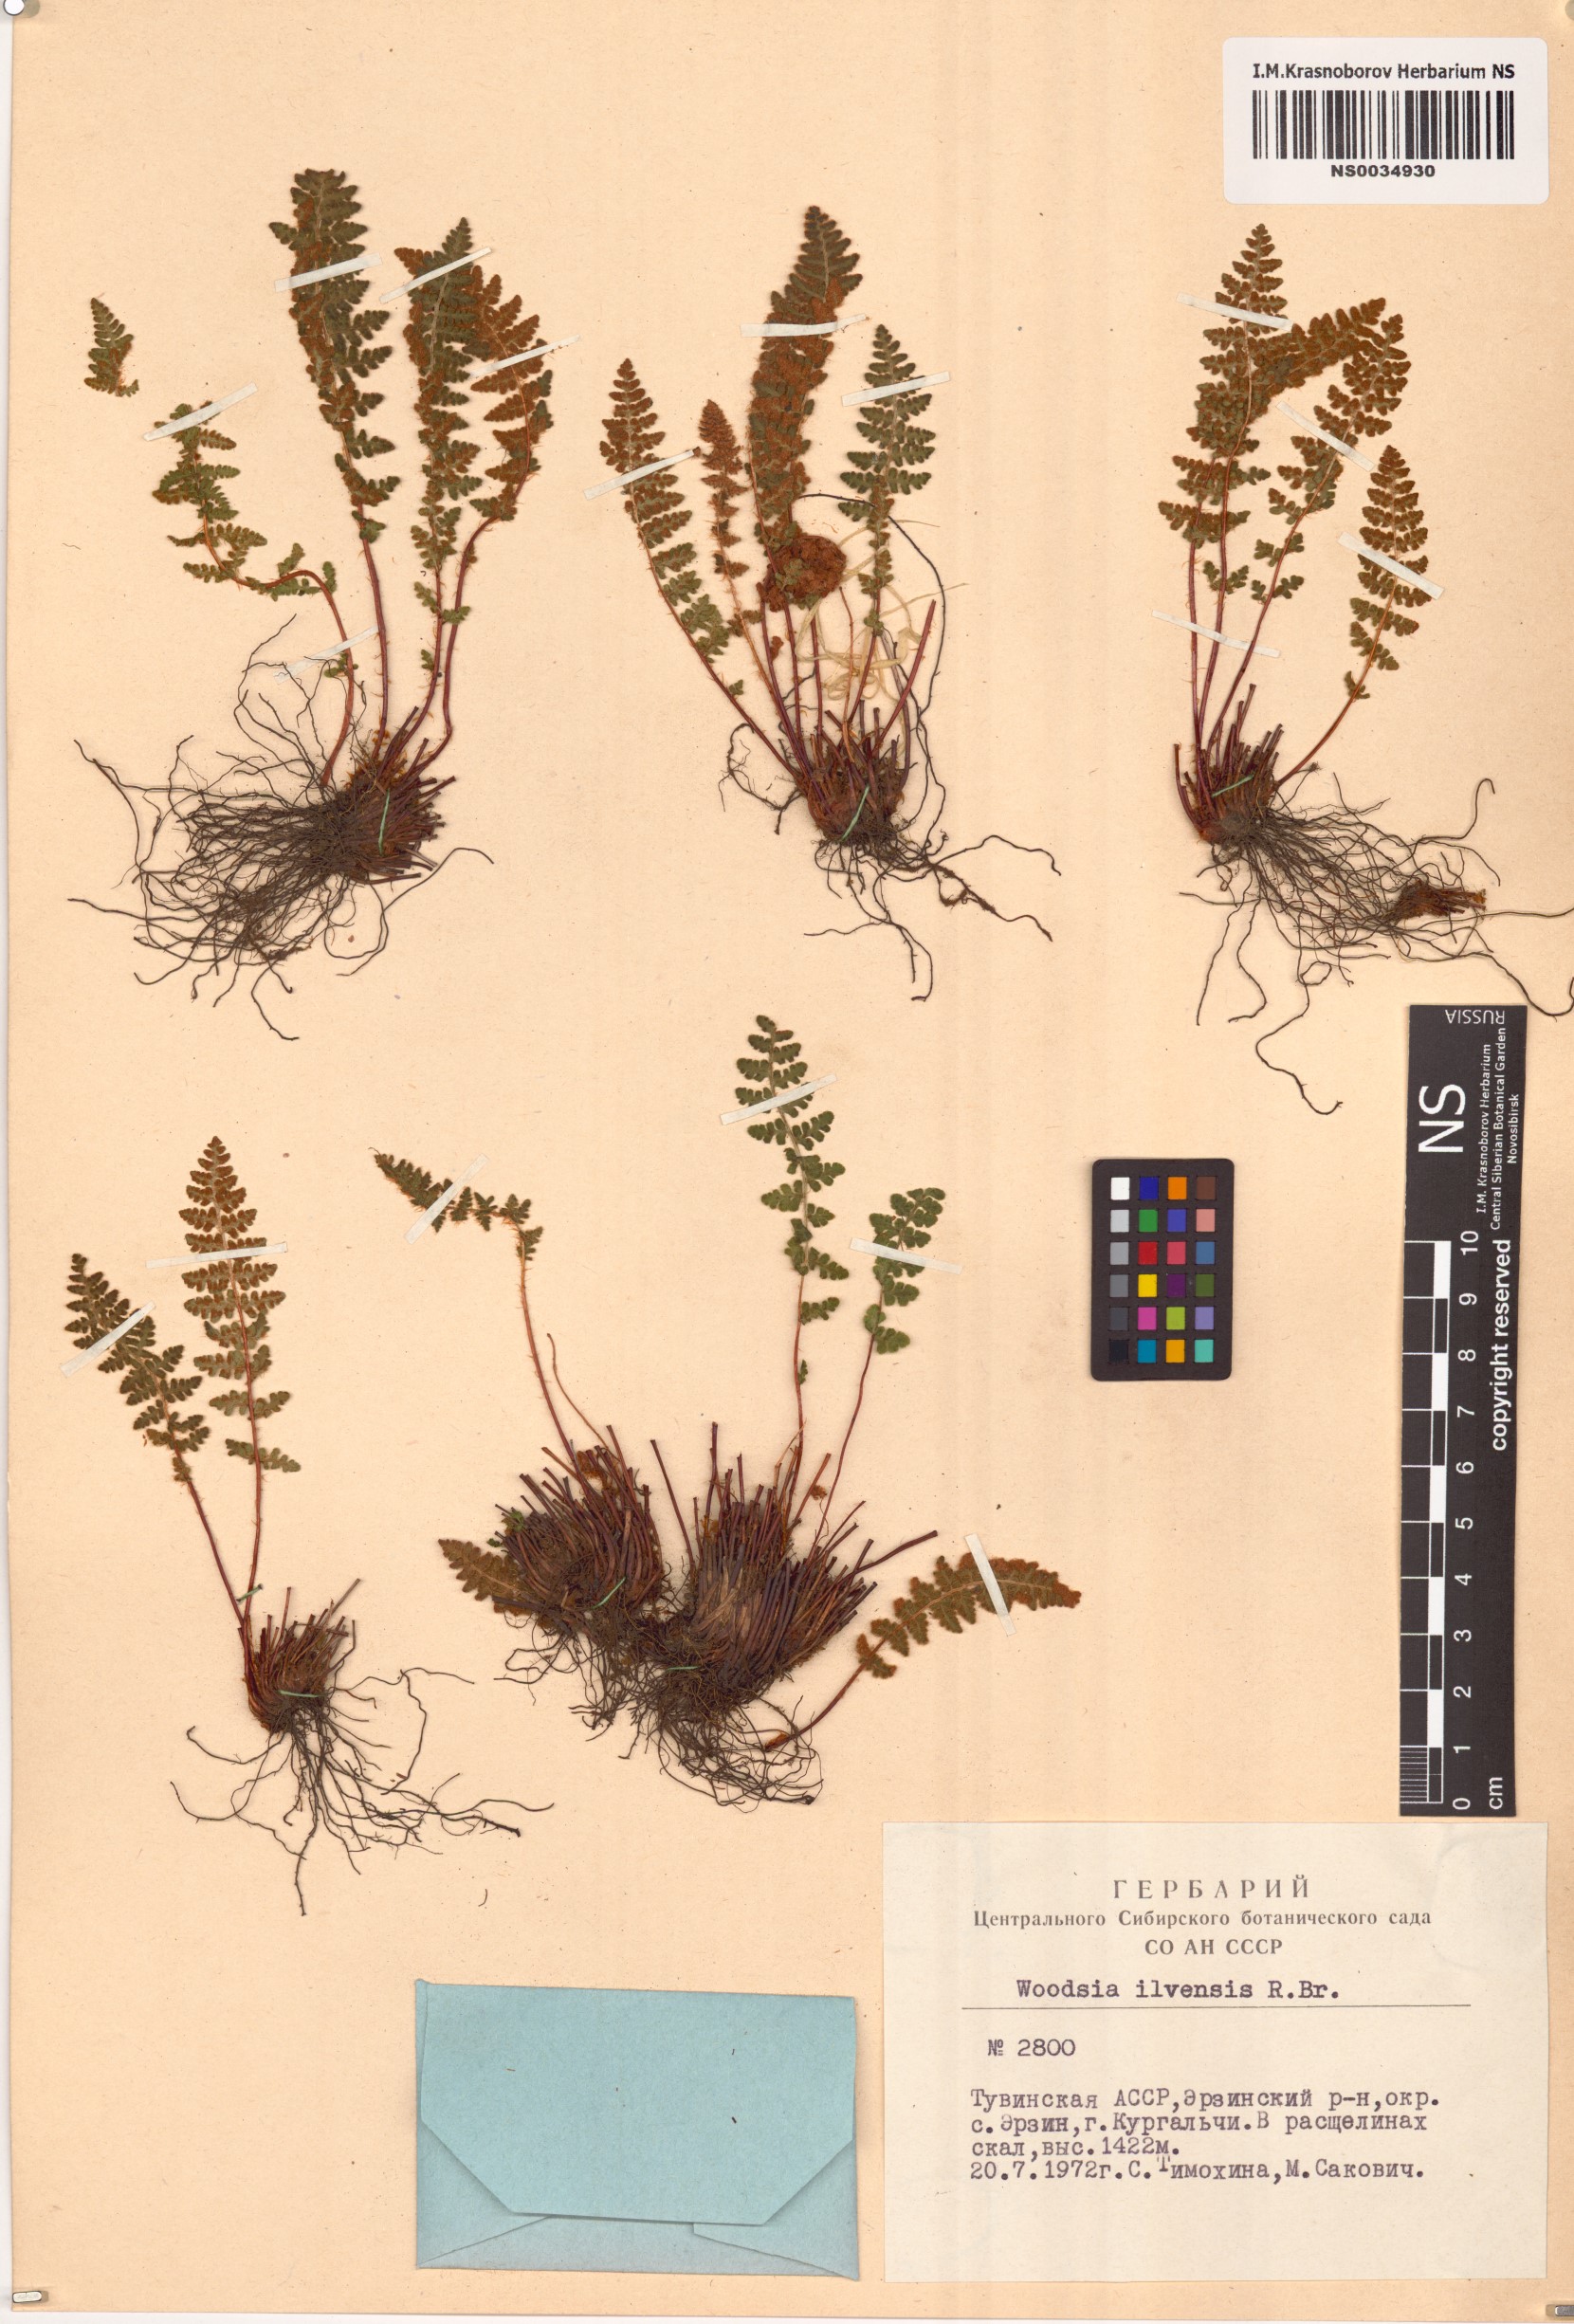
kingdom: Plantae
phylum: Tracheophyta
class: Polypodiopsida
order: Polypodiales
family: Woodsiaceae
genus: Woodsia
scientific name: Woodsia ilvensis
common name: Fragrant woodsia
